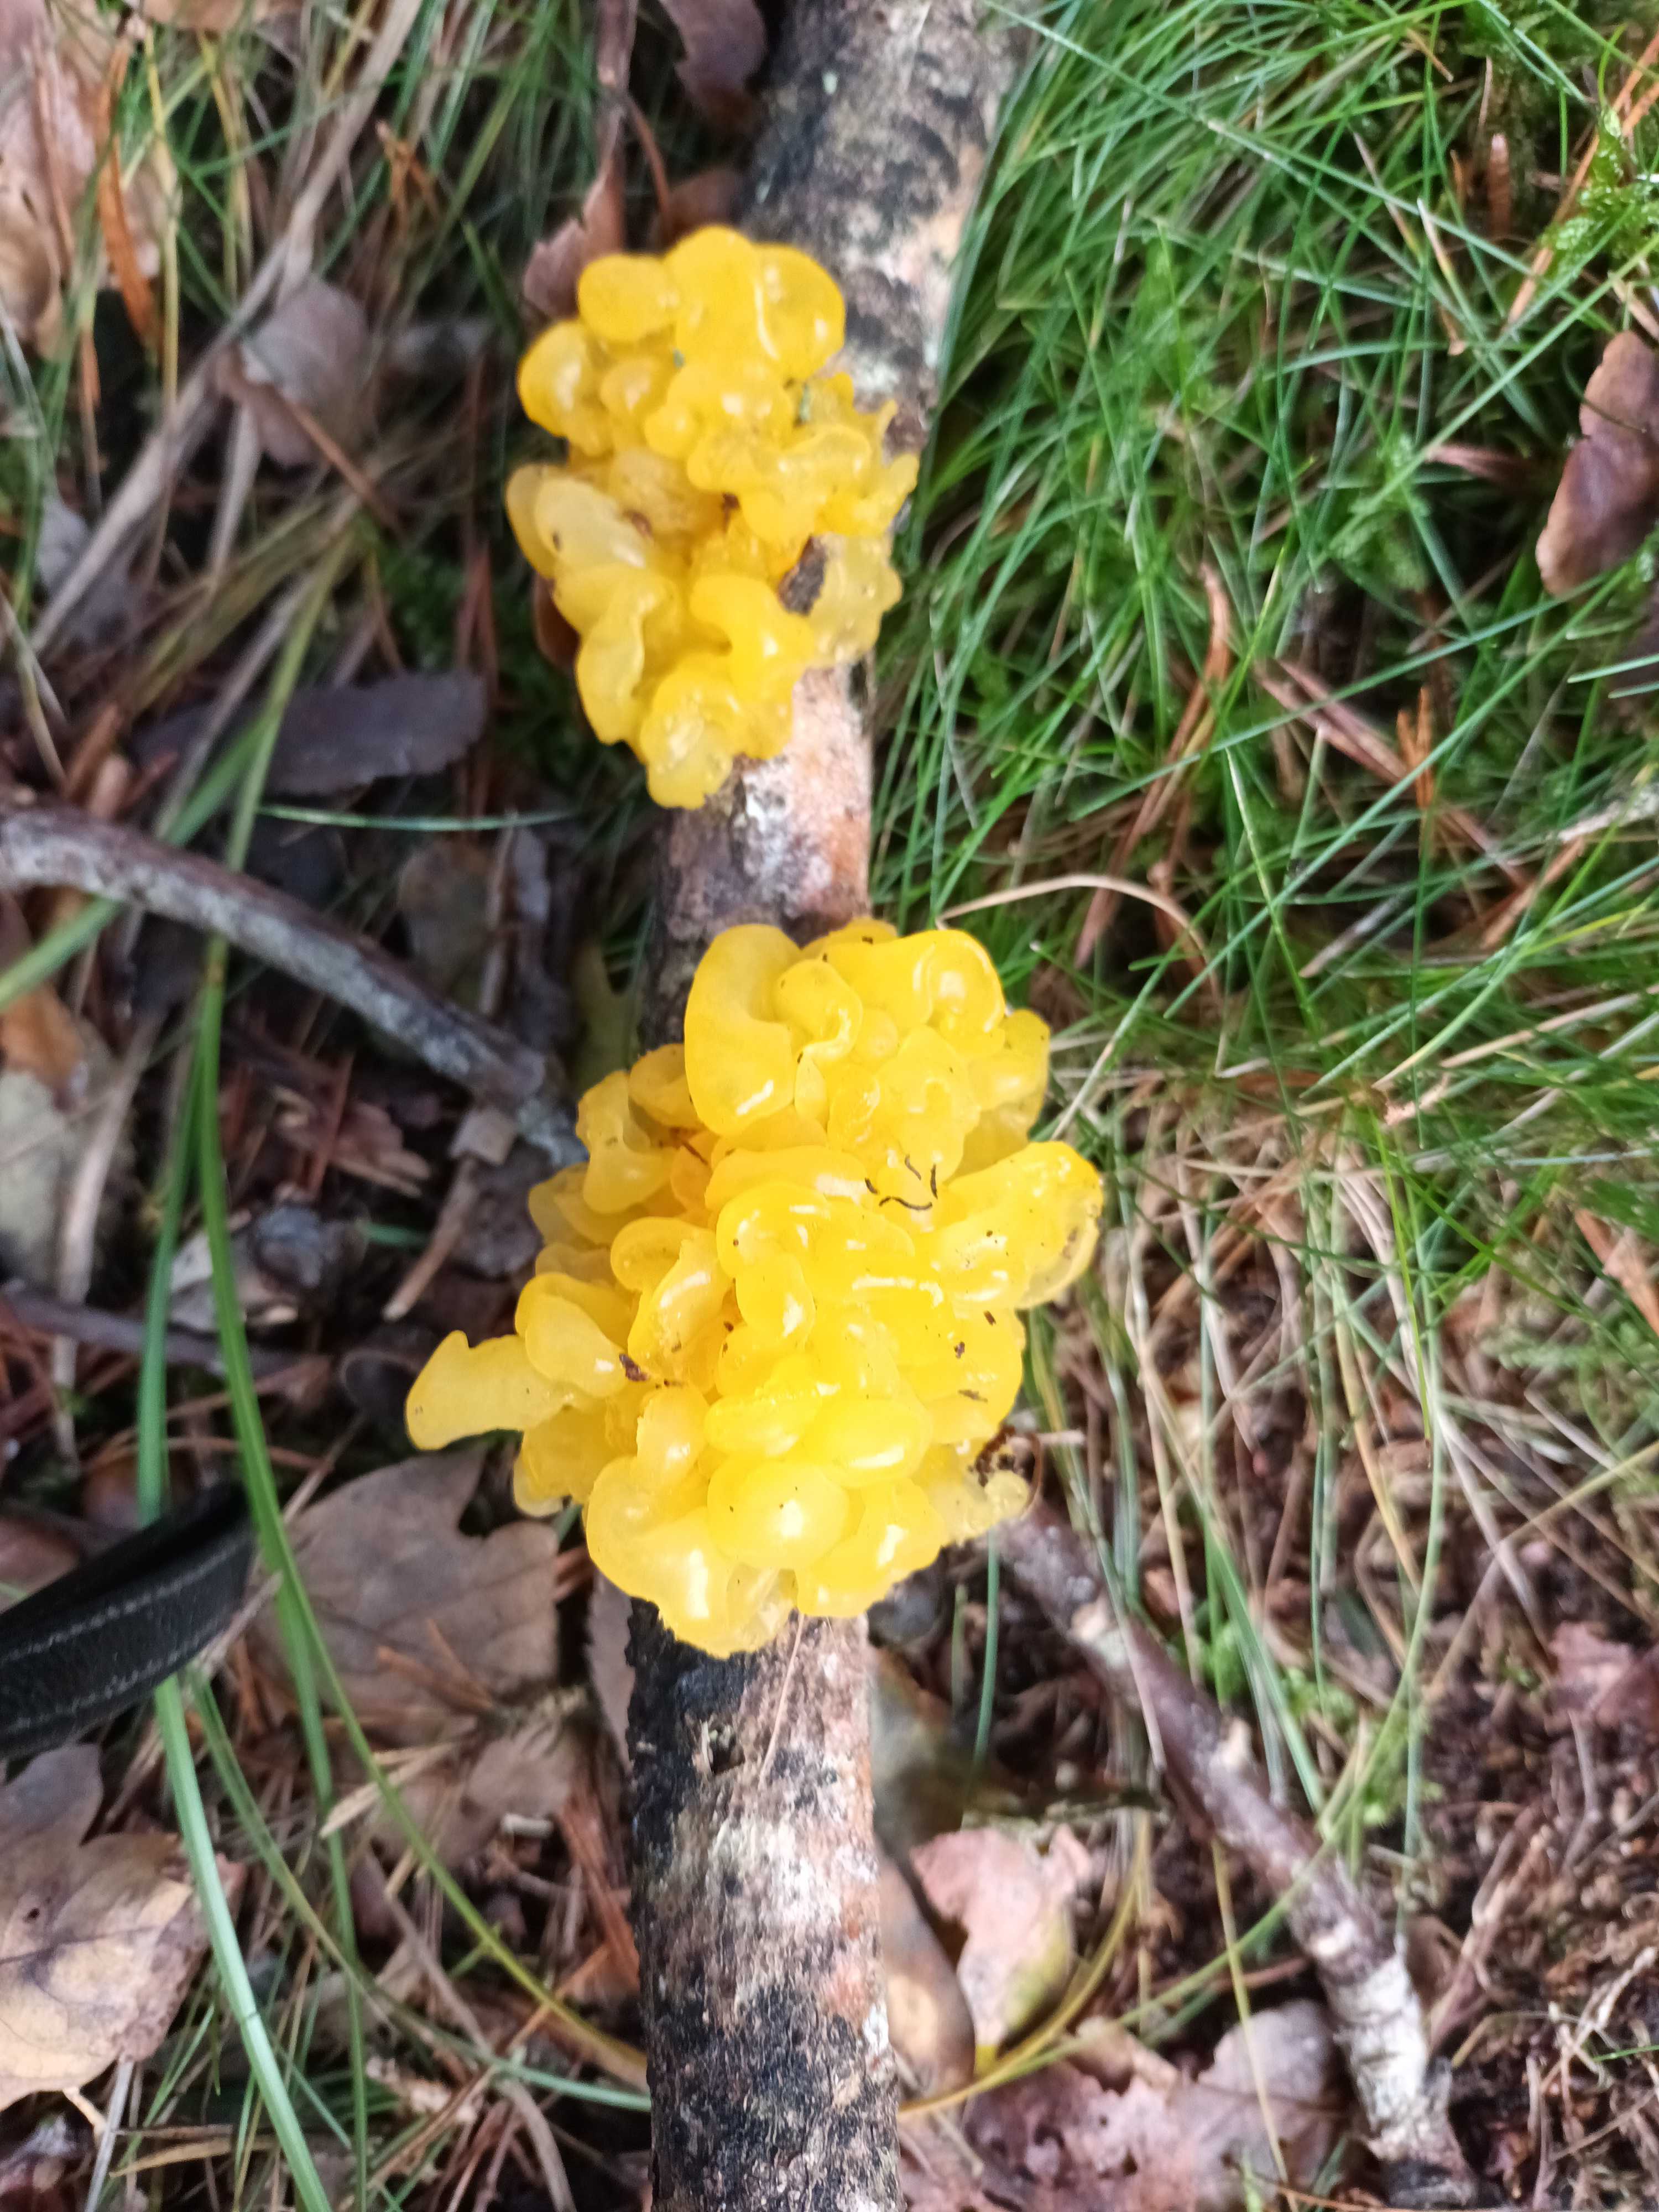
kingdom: Fungi
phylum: Basidiomycota
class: Tremellomycetes
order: Tremellales
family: Tremellaceae
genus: Tremella
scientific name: Tremella mesenterica
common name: gul bævresvamp
